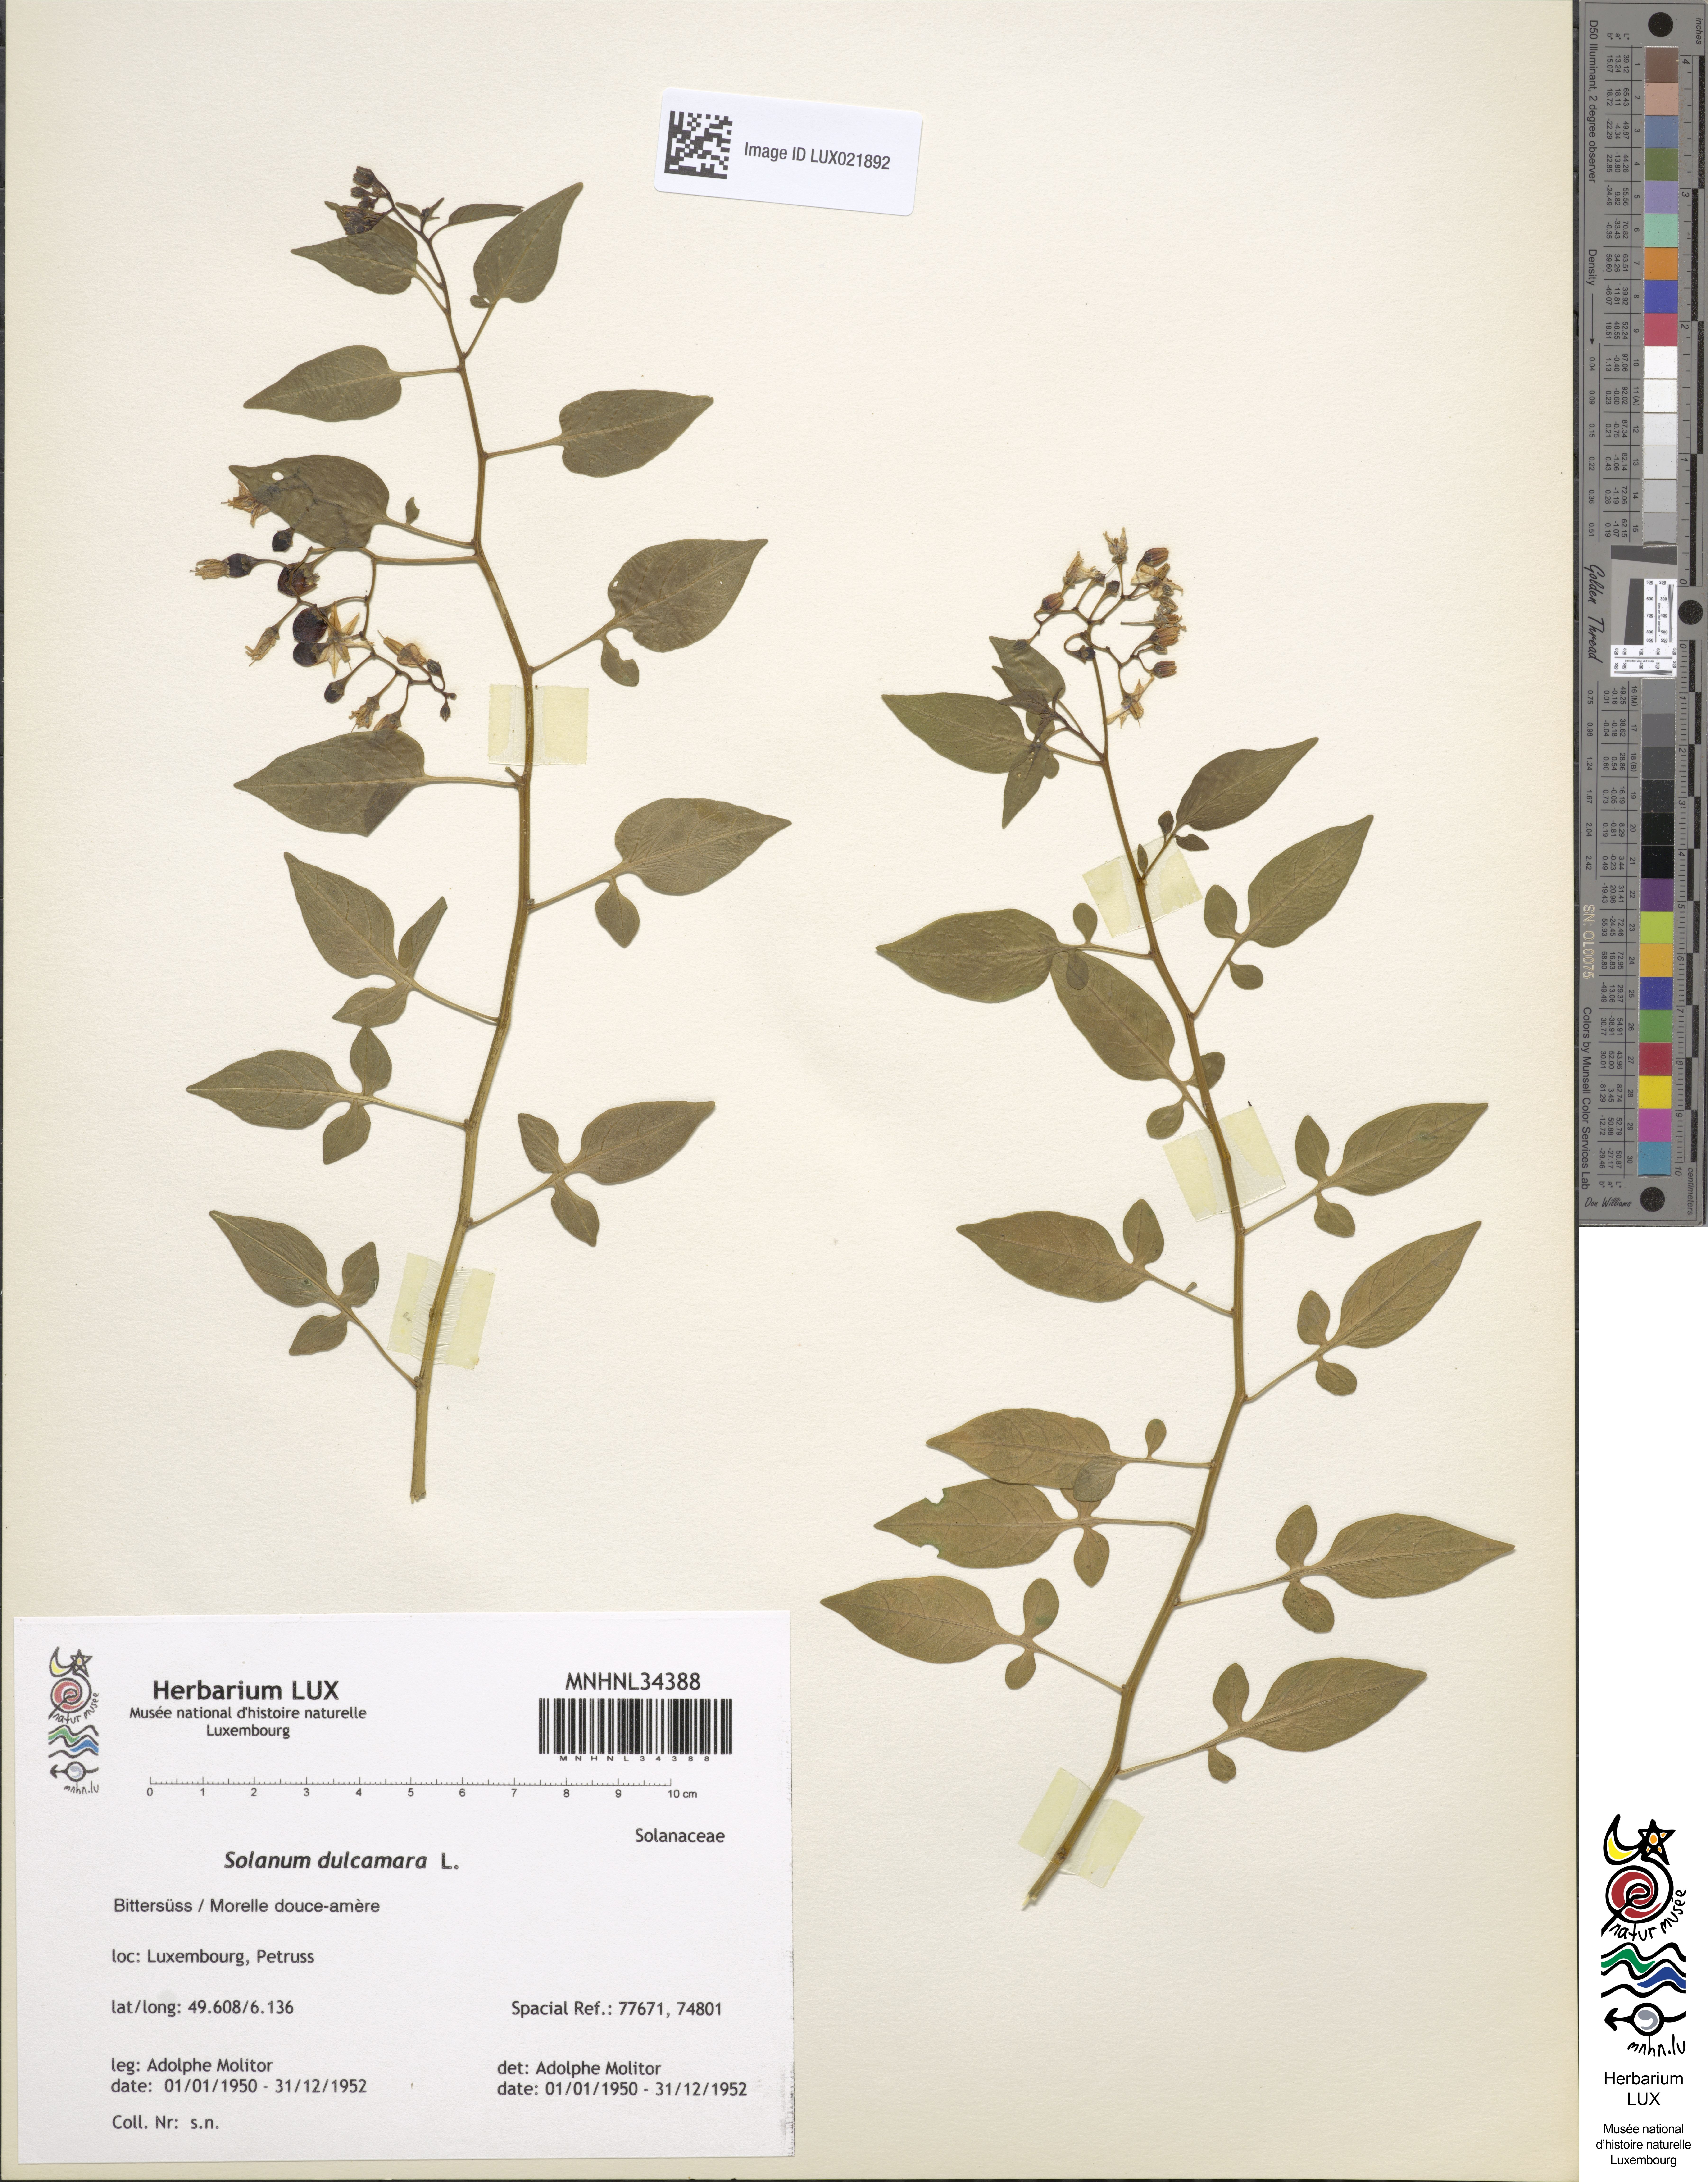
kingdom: Plantae
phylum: Tracheophyta
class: Magnoliopsida
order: Solanales
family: Solanaceae
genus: Solanum
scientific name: Solanum dulcamara
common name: Climbing nightshade
